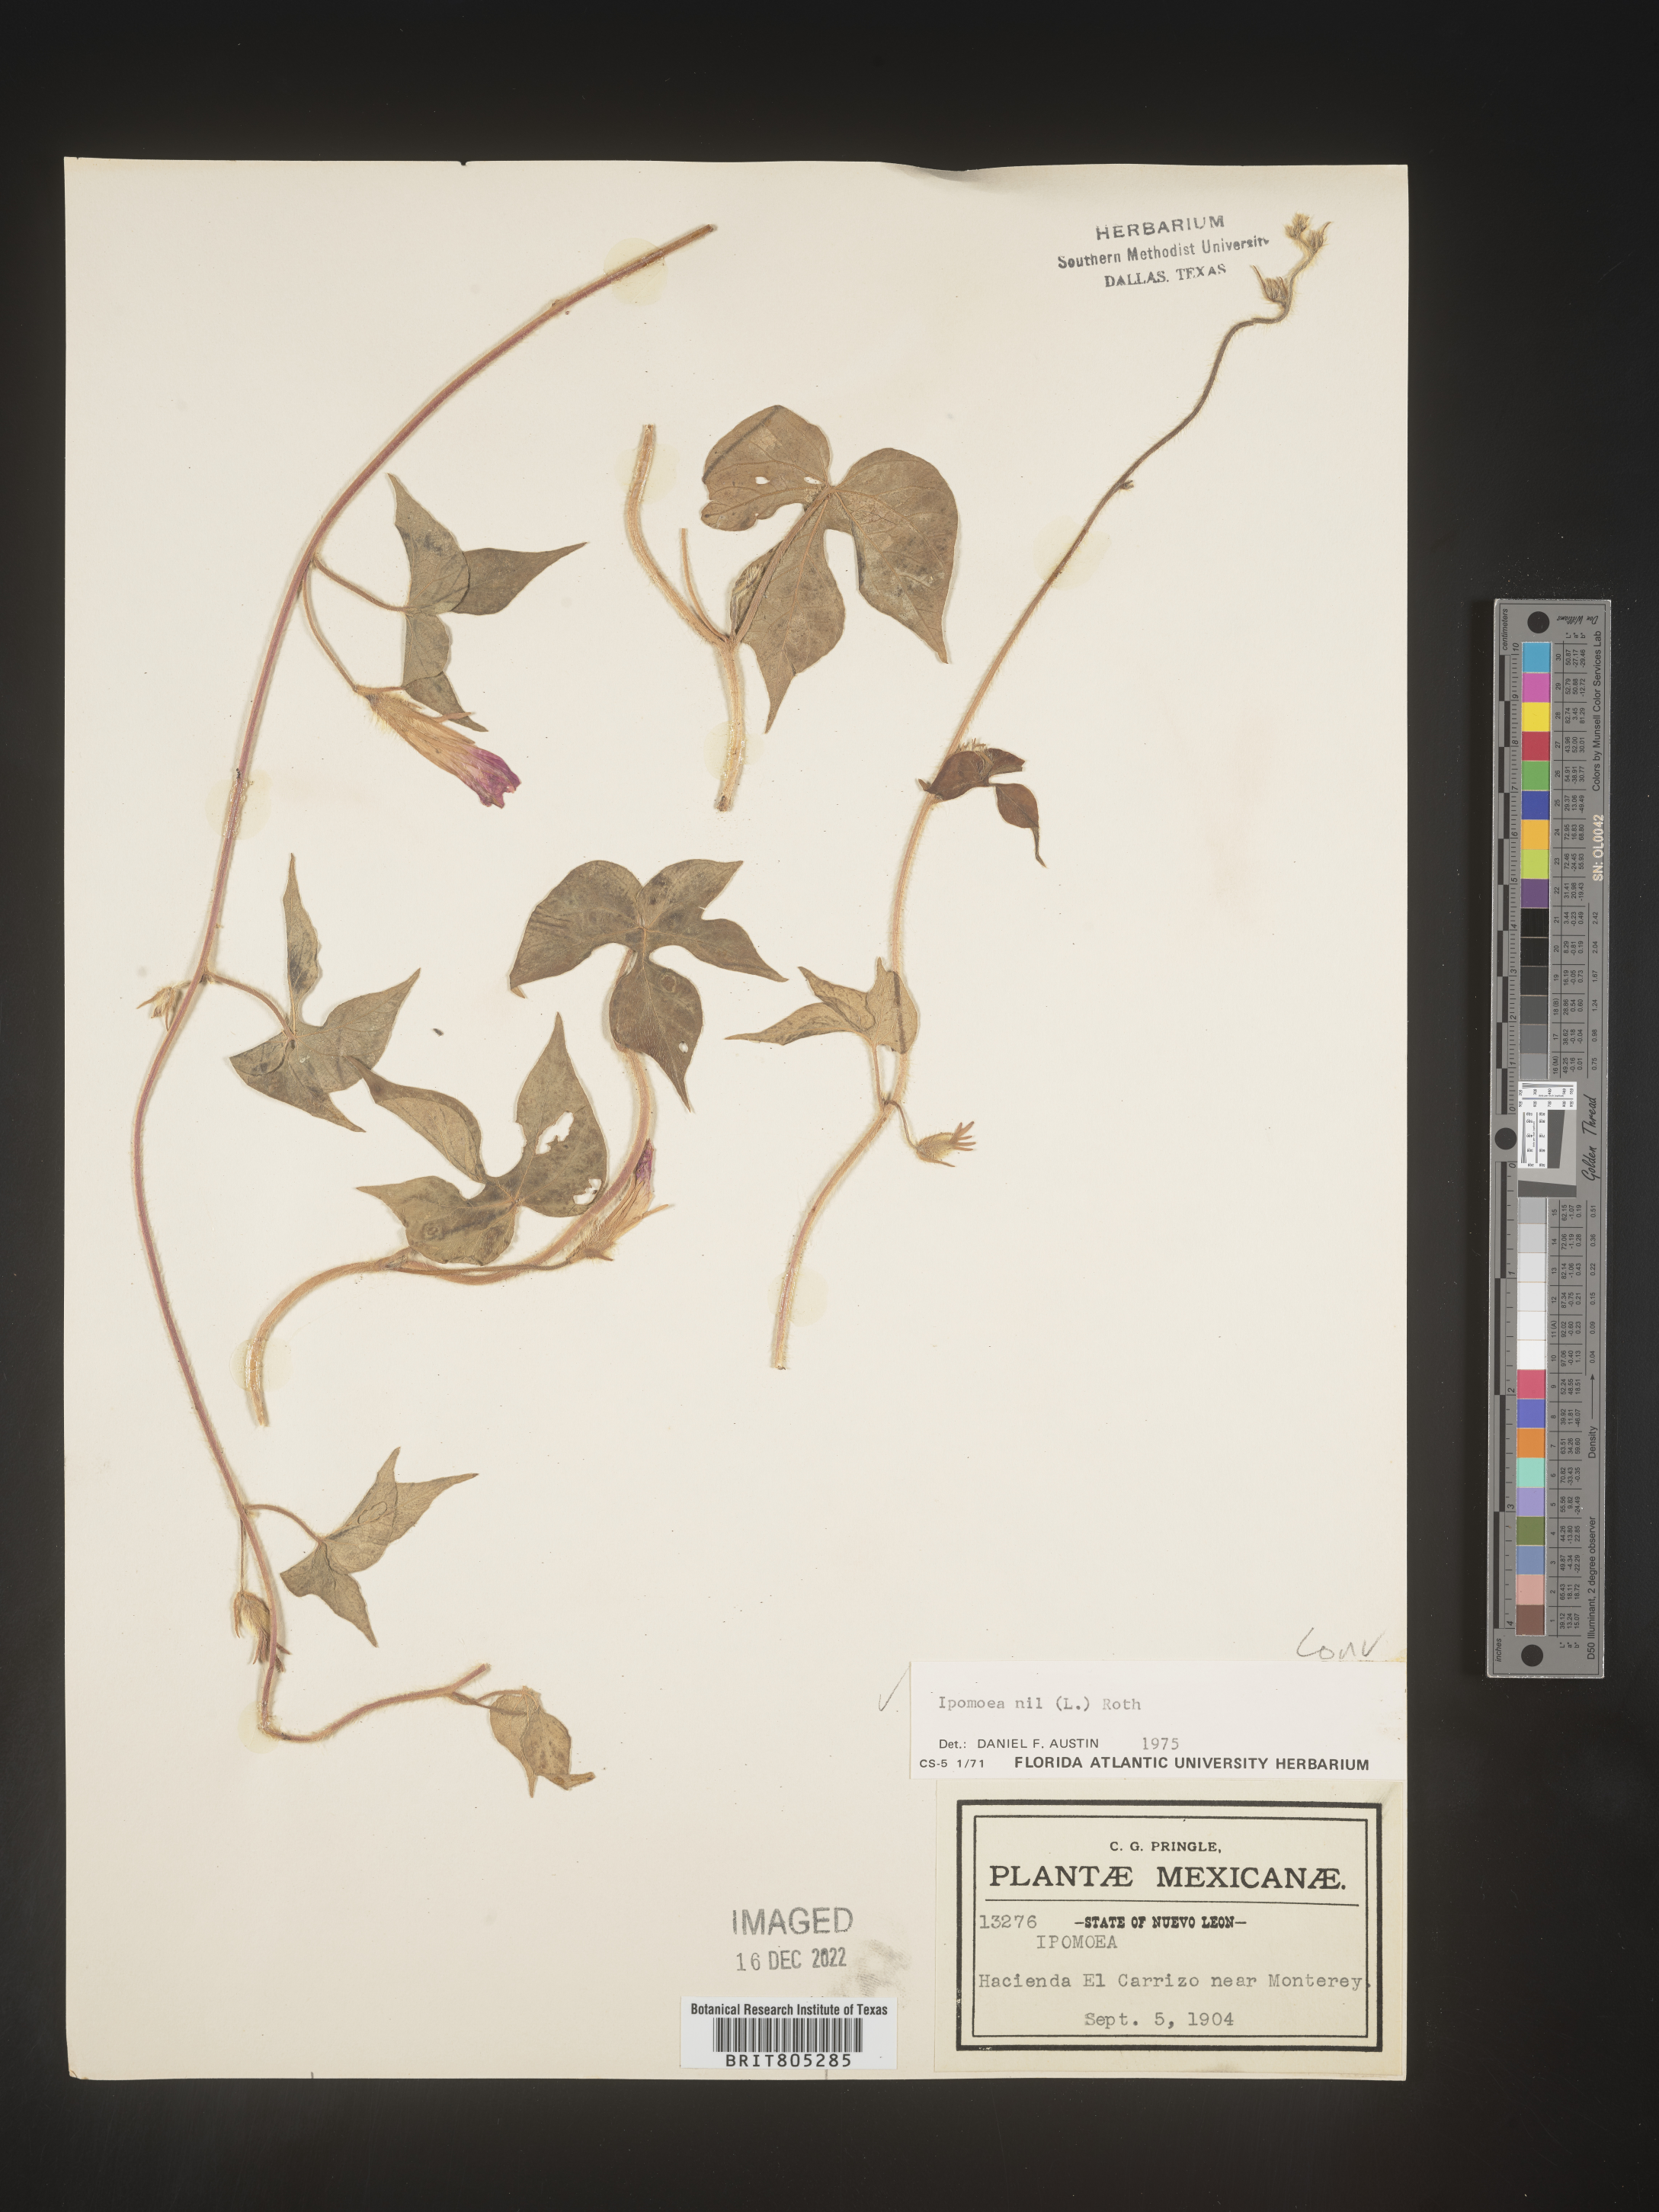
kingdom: Plantae
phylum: Tracheophyta
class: Magnoliopsida
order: Solanales
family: Convolvulaceae
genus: Ipomoea
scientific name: Ipomoea
